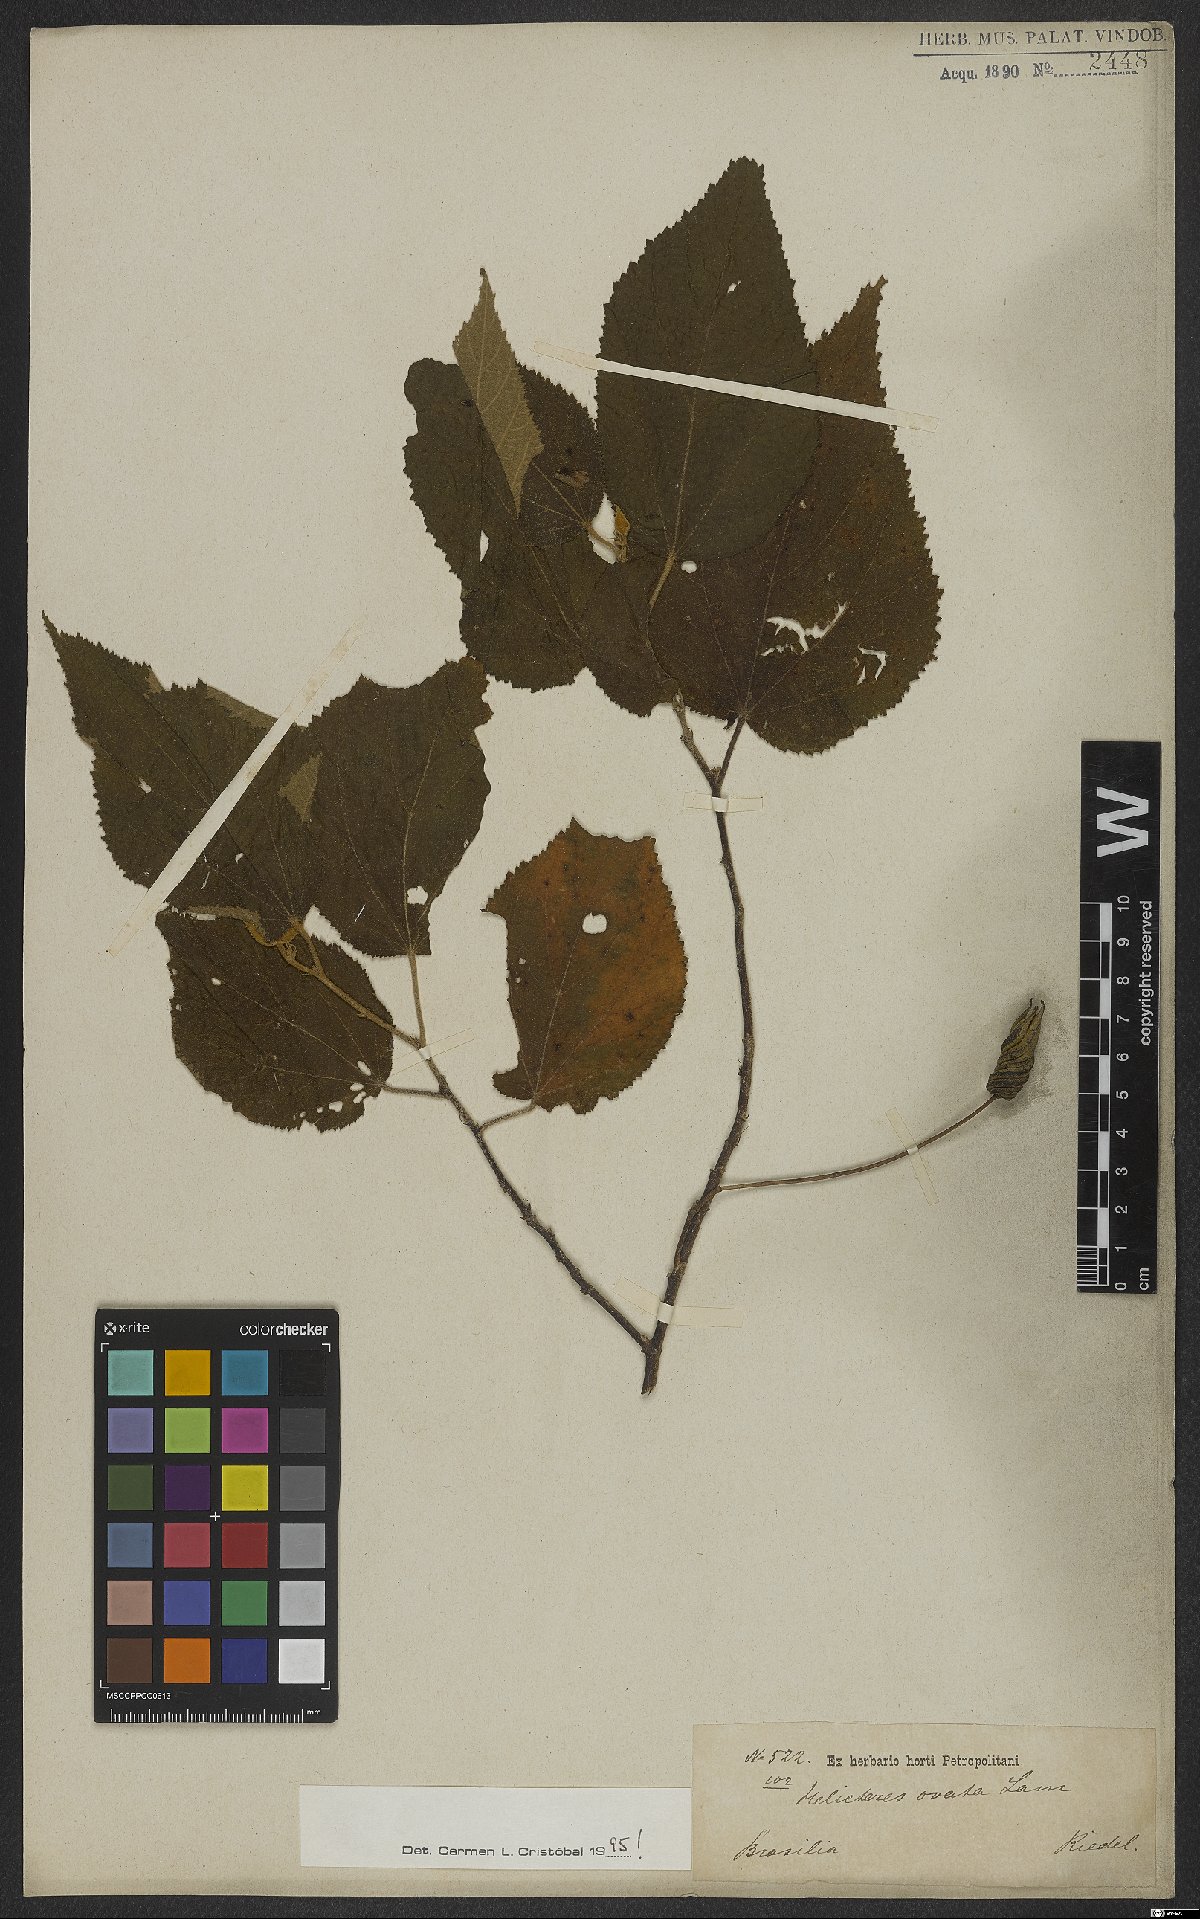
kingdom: Plantae
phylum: Tracheophyta
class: Magnoliopsida
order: Malvales
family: Malvaceae
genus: Helicteres
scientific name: Helicteres ovata
